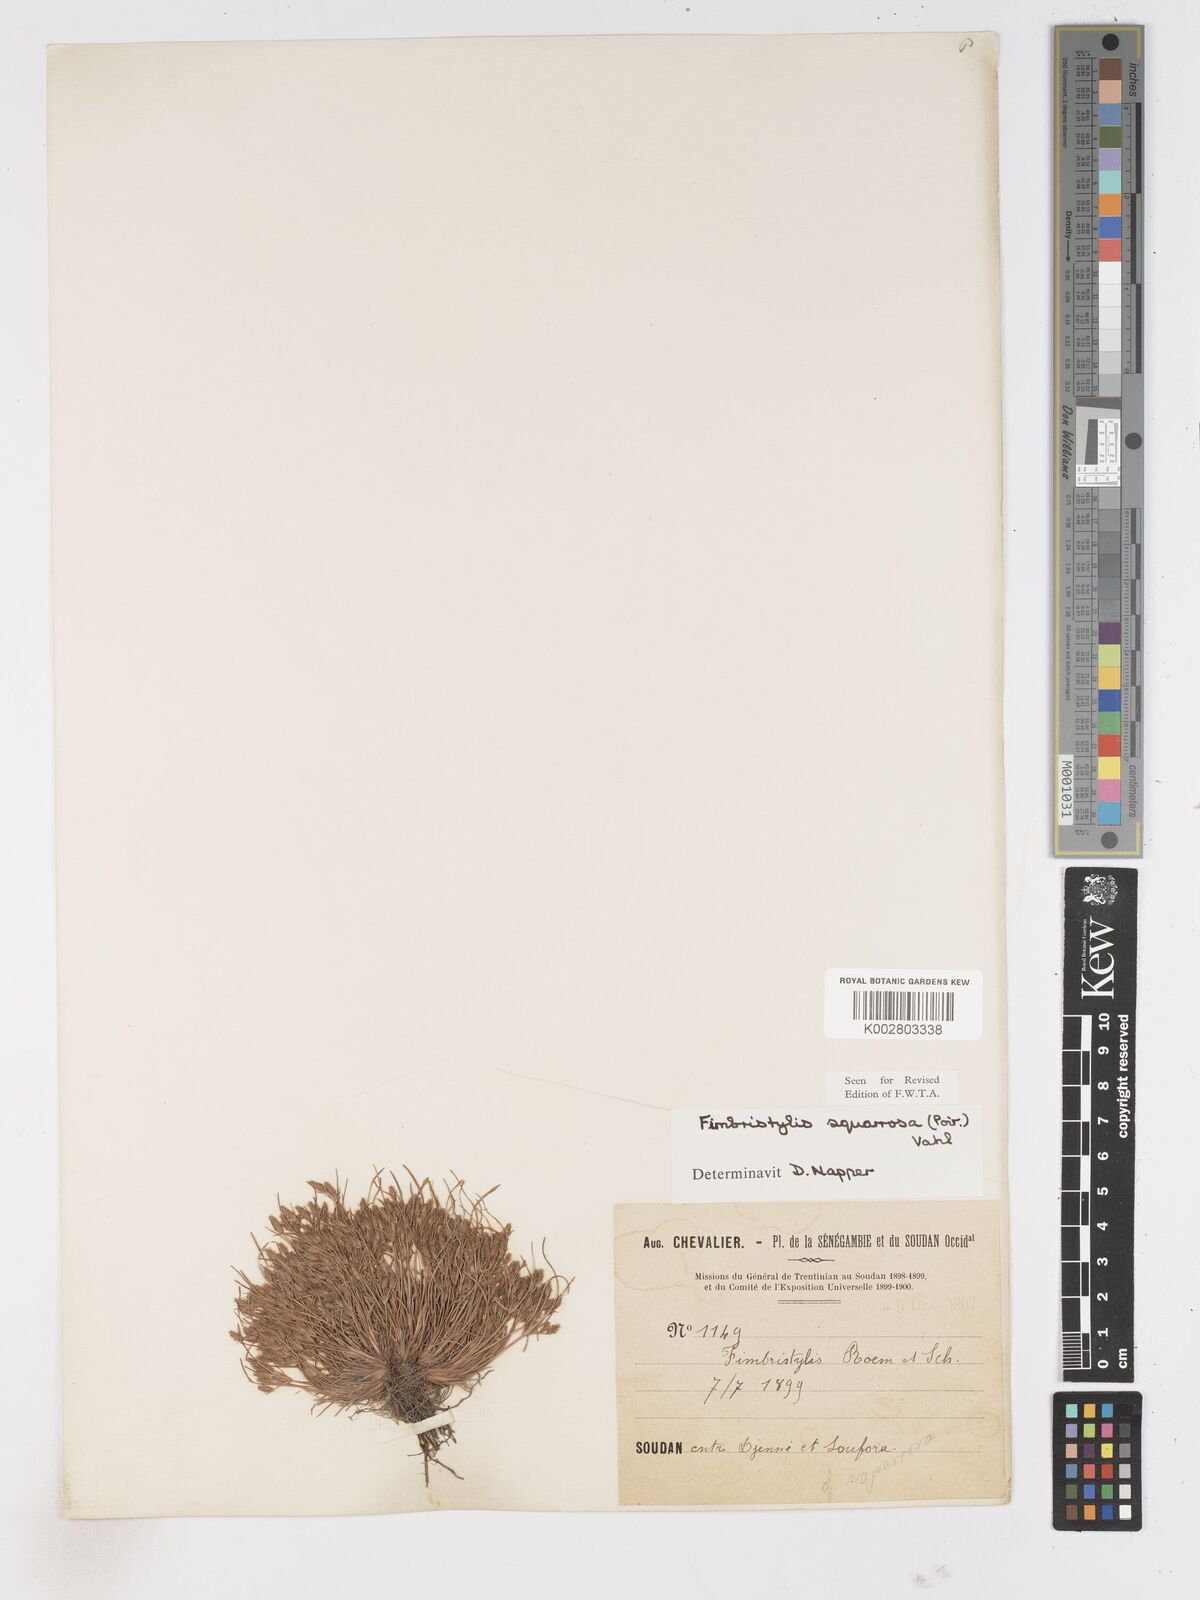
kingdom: Plantae
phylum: Tracheophyta
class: Liliopsida
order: Poales
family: Cyperaceae
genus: Fimbristylis
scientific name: Fimbristylis squarrosa
